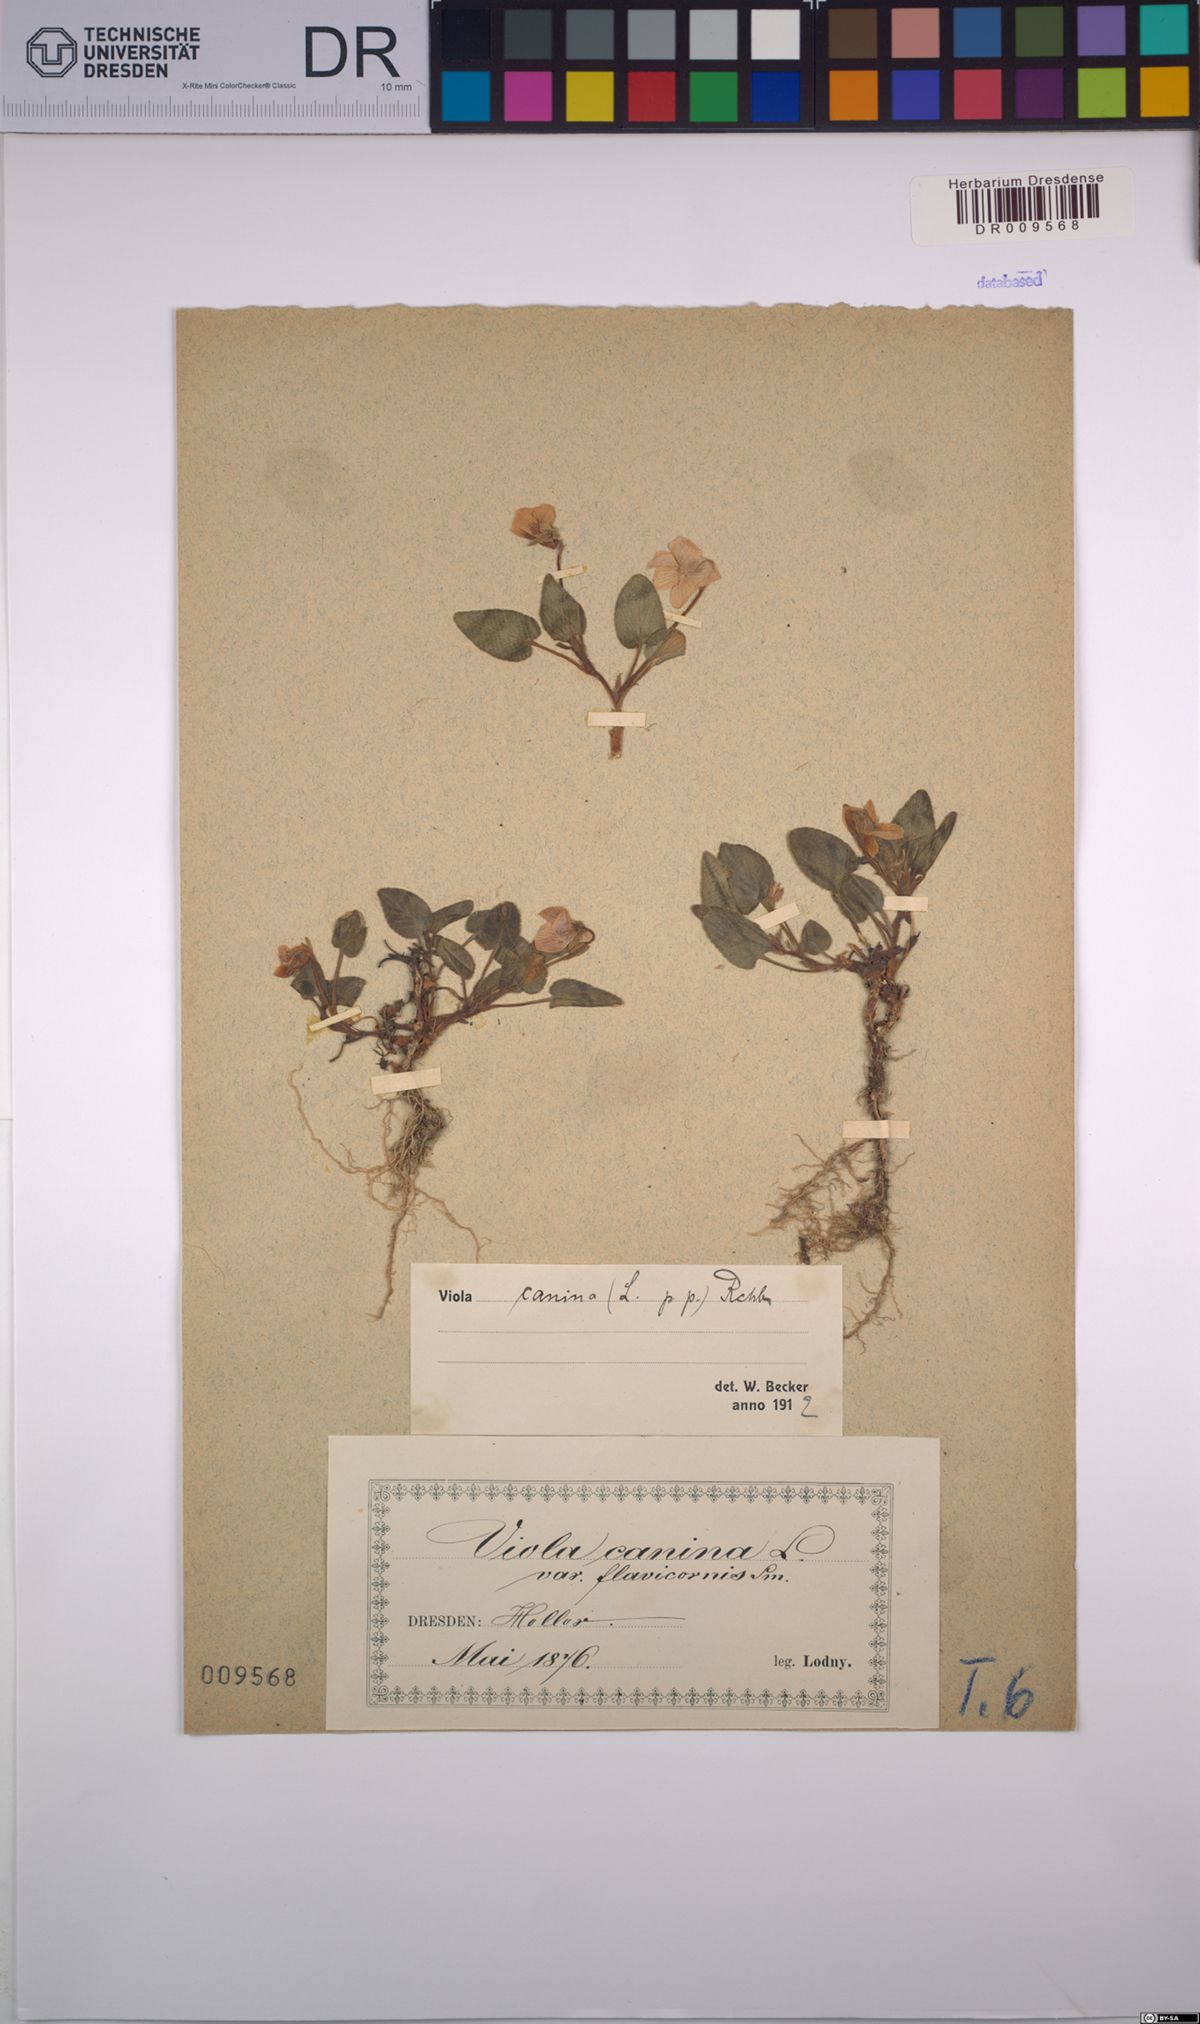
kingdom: Plantae
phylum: Tracheophyta
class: Magnoliopsida
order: Malpighiales
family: Violaceae
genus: Viola
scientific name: Viola canina
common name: Heath dog-violet
